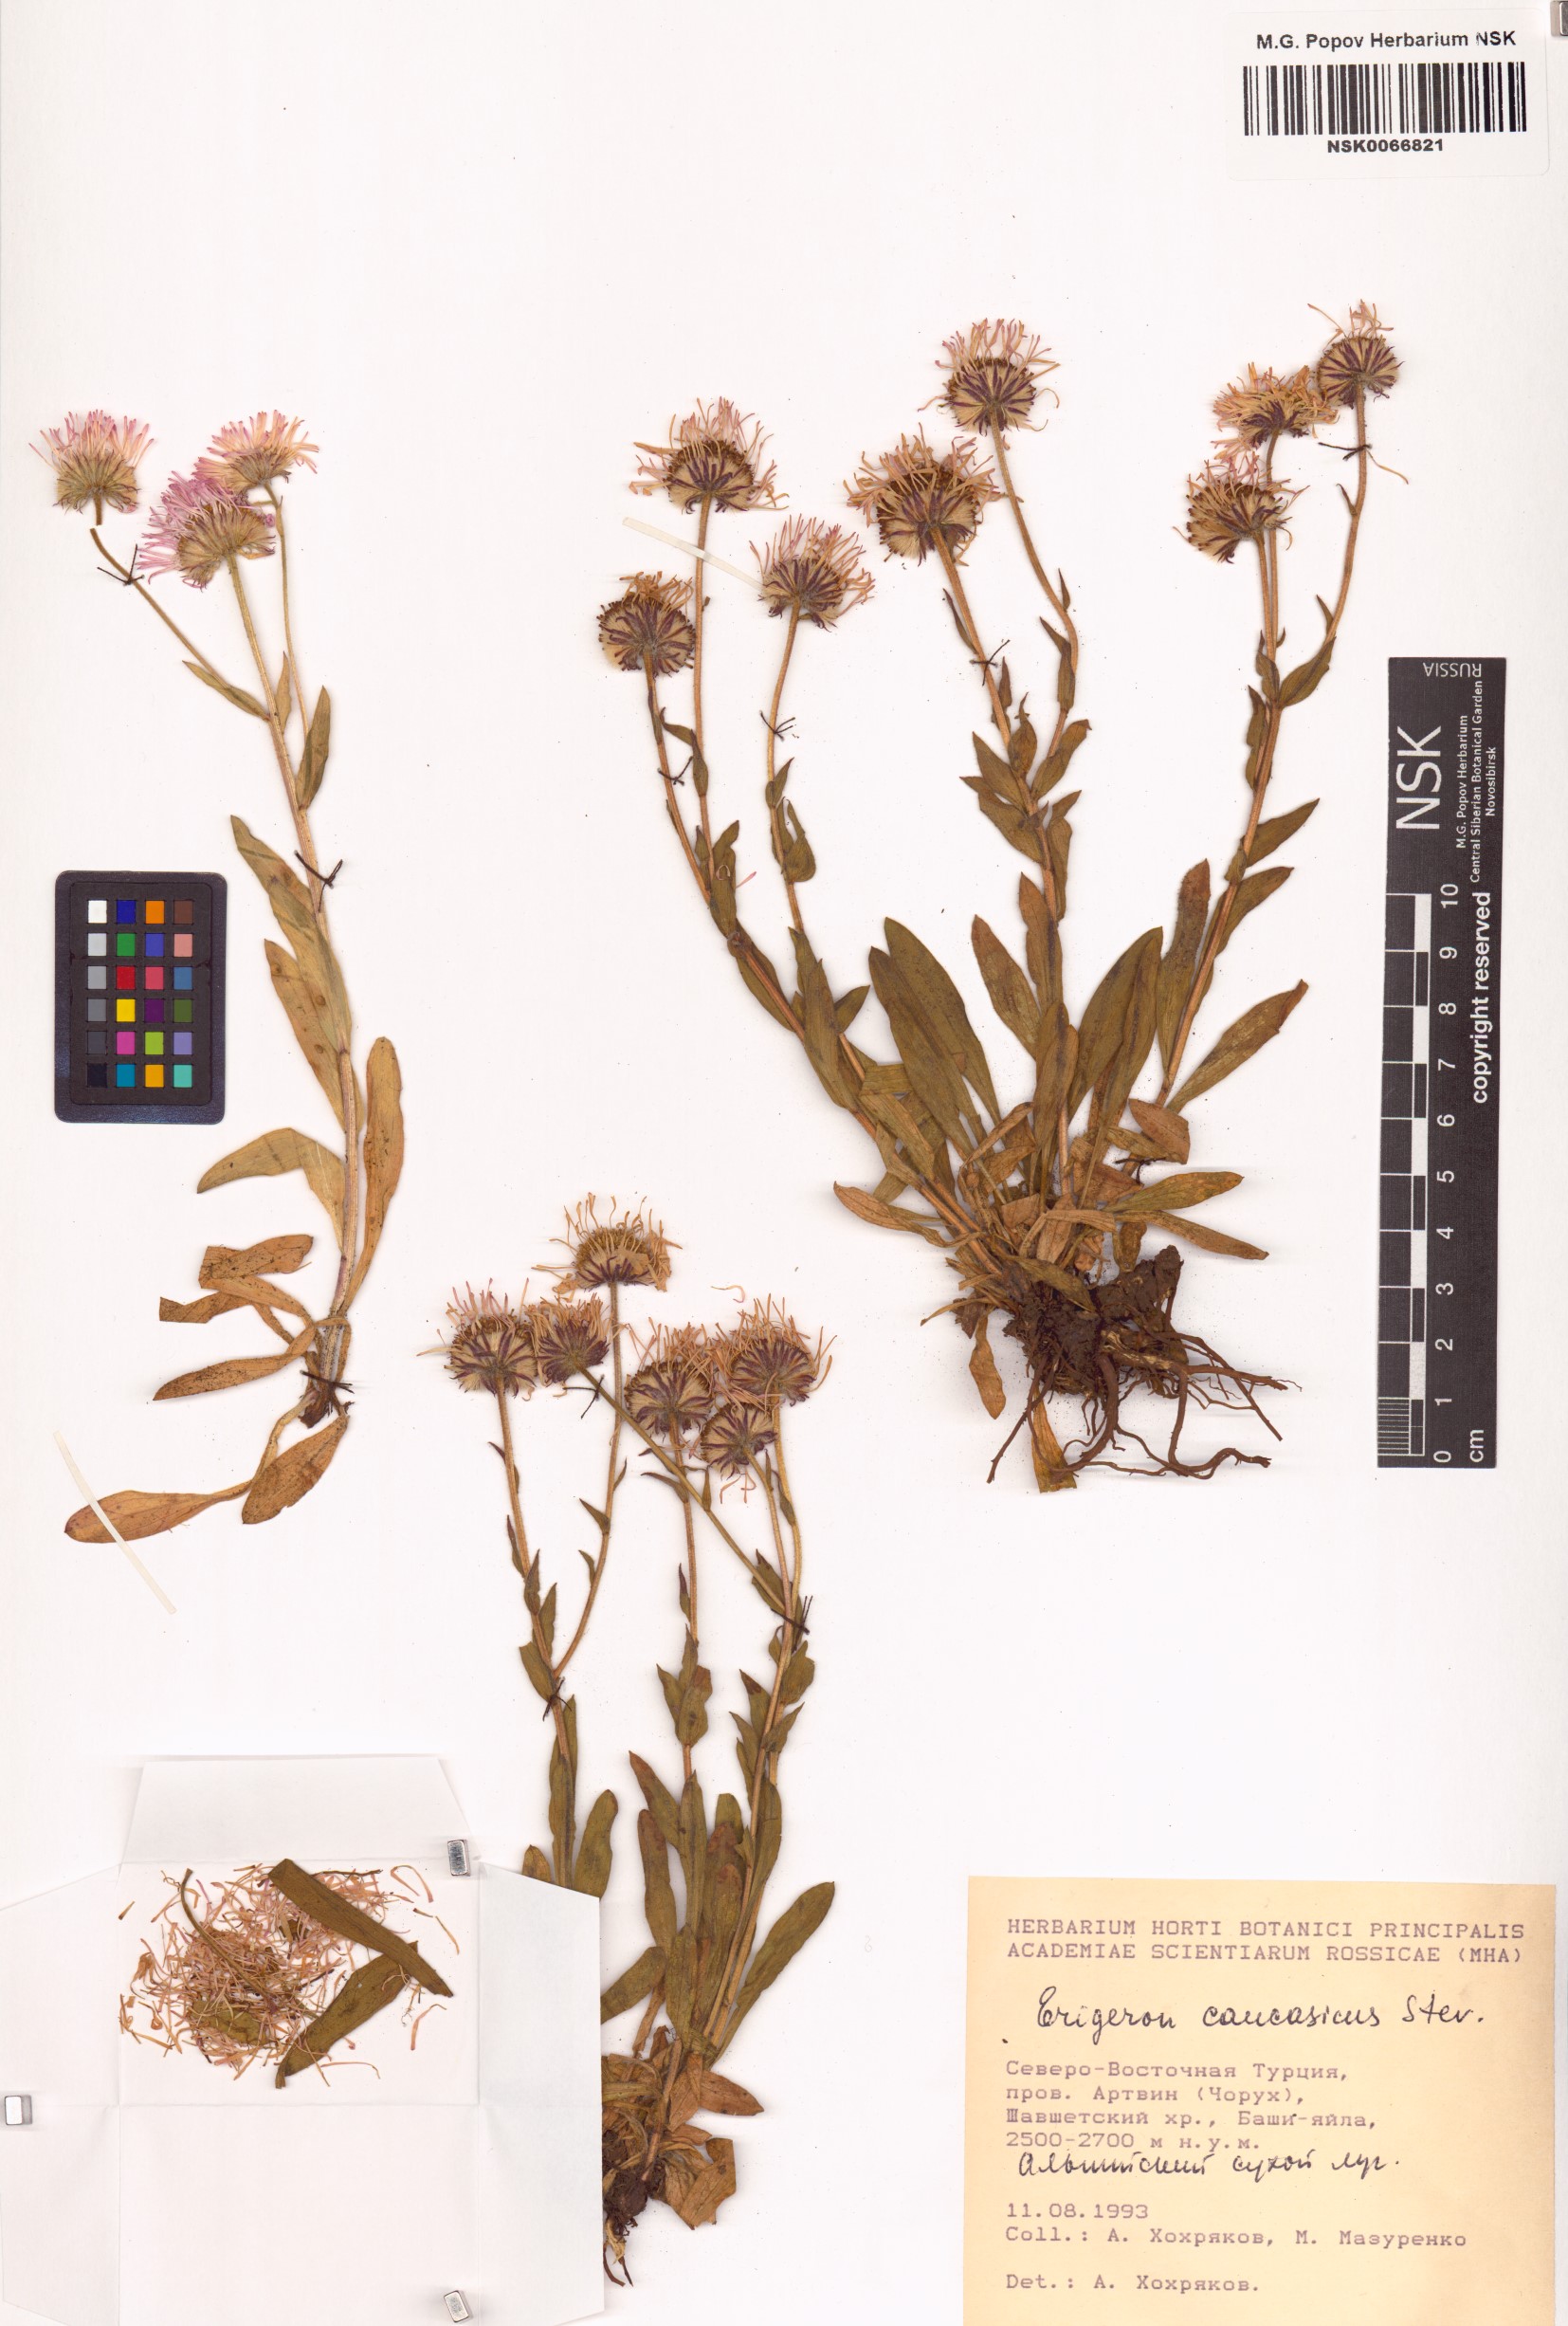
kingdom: Plantae
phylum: Tracheophyta
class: Magnoliopsida
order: Asterales
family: Asteraceae
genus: Erigeron
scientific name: Erigeron caucasicus
